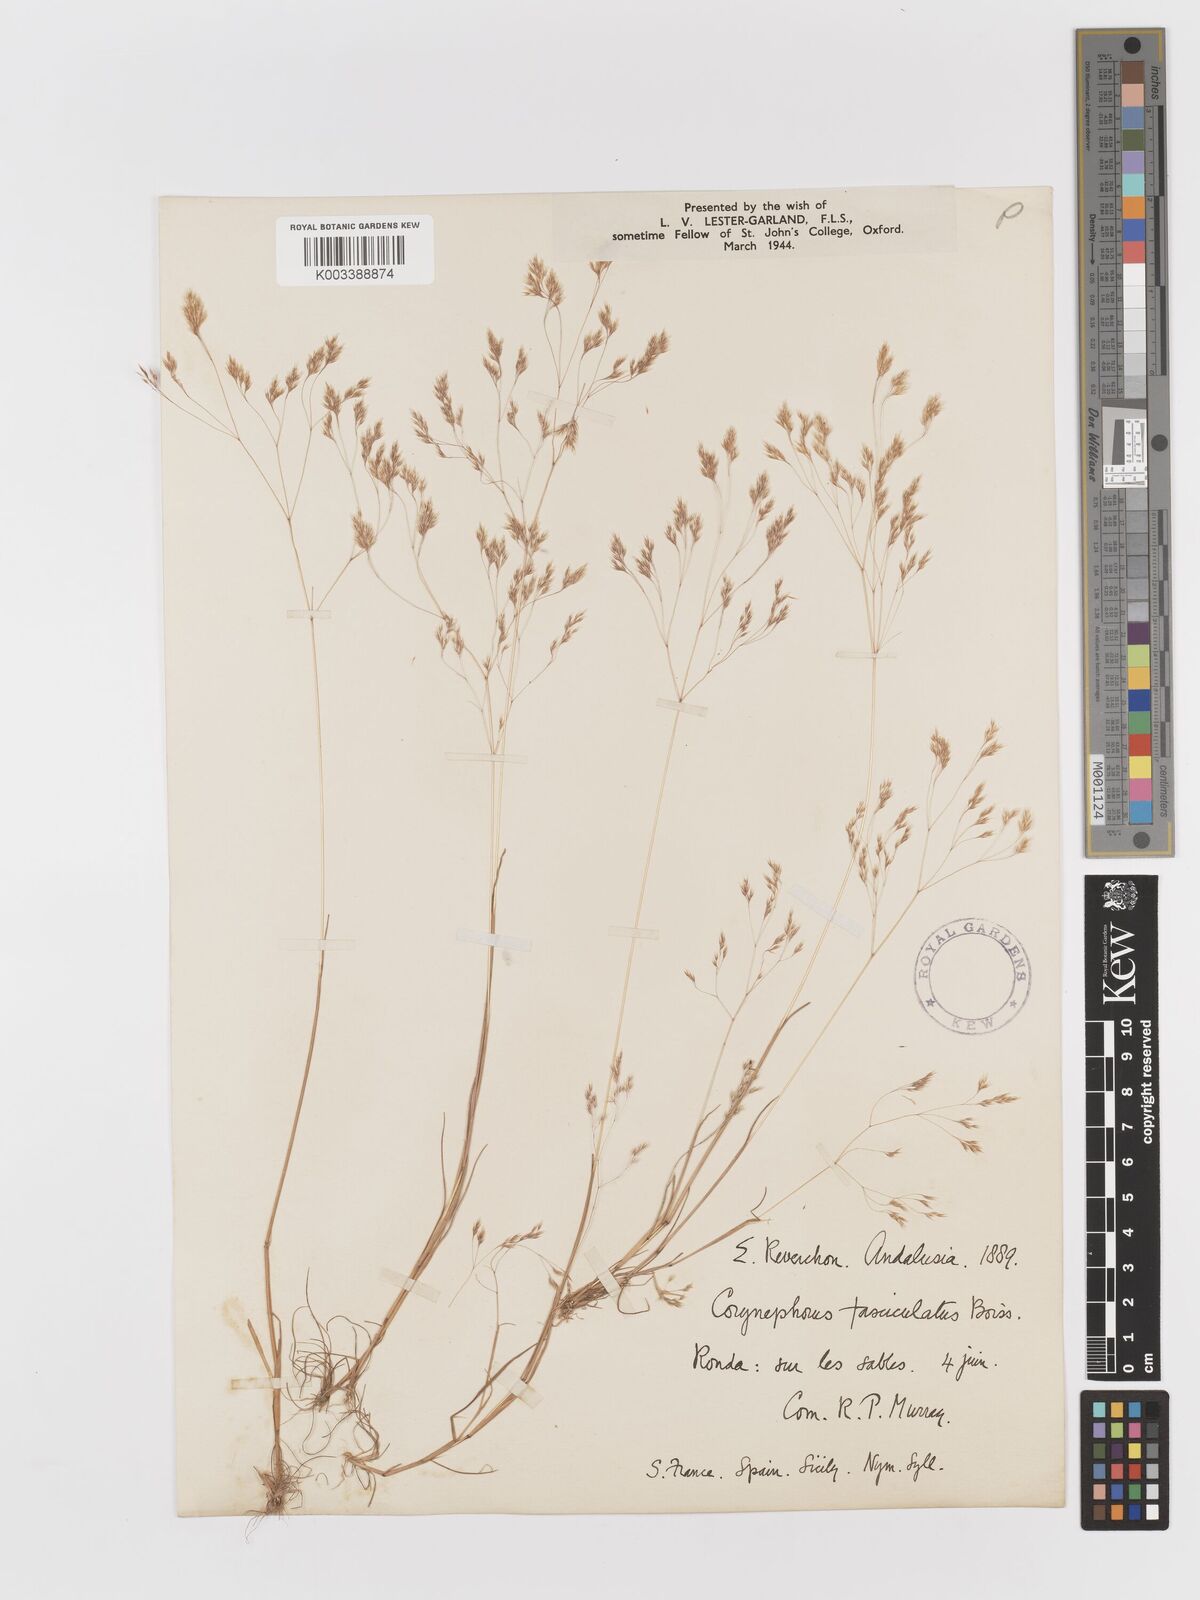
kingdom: Plantae
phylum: Tracheophyta
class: Liliopsida
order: Poales
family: Poaceae
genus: Corynephorus
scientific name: Corynephorus fasciculatus
